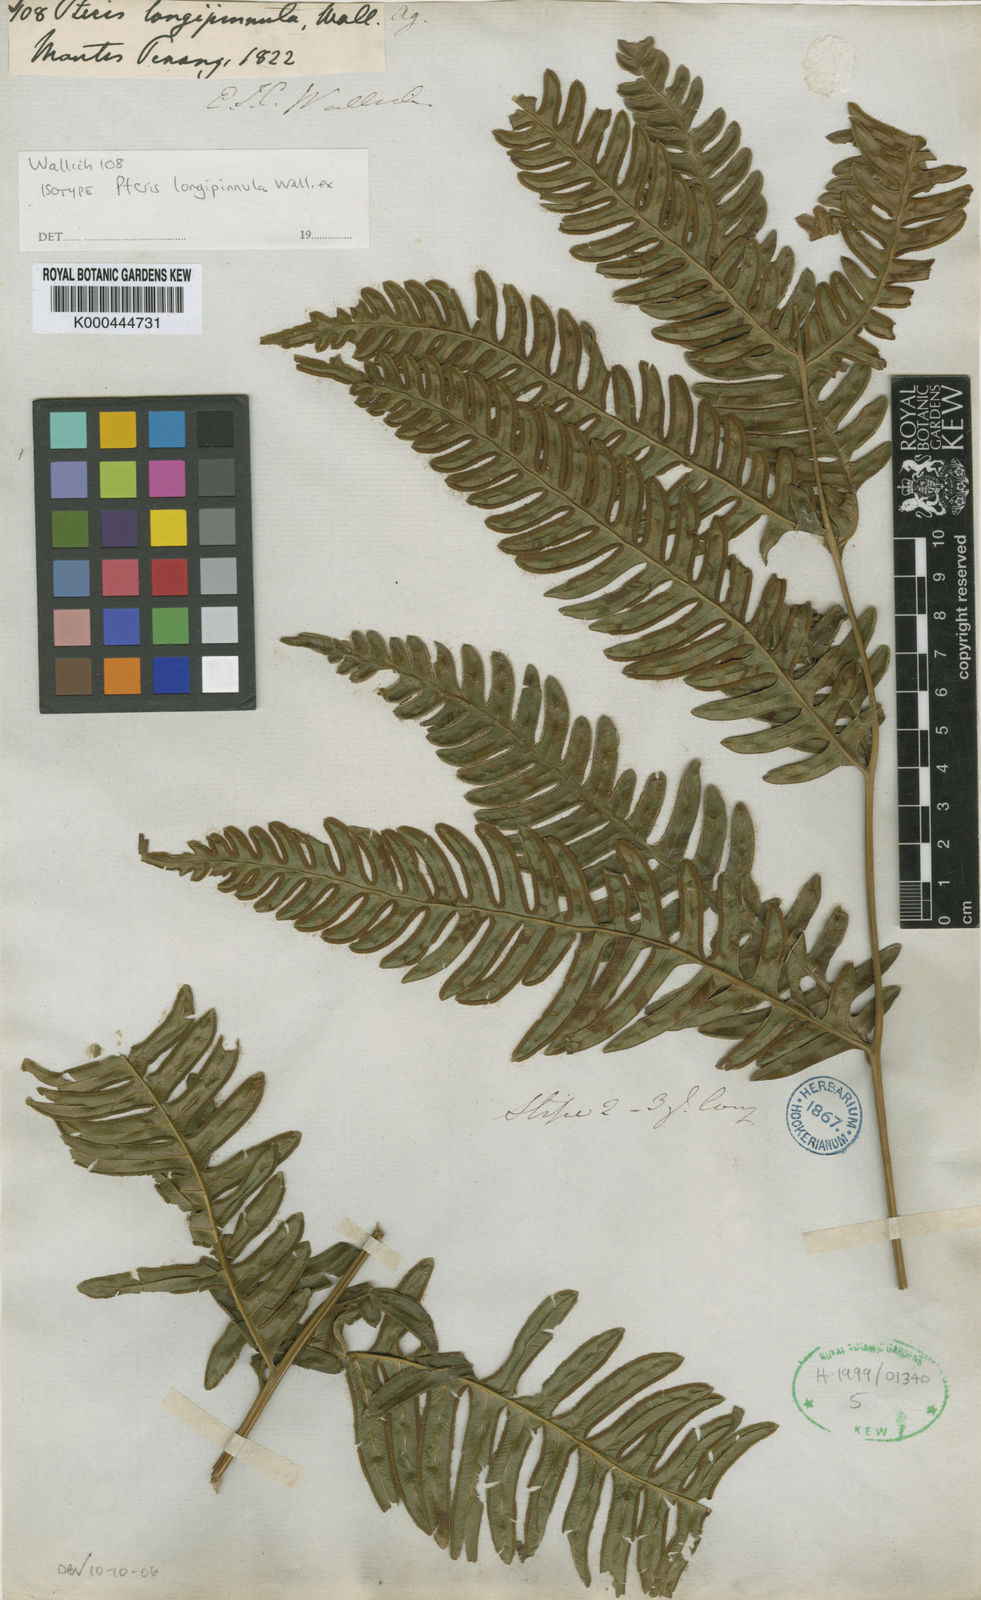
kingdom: Plantae
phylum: Tracheophyta
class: Polypodiopsida
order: Polypodiales
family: Pteridaceae
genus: Pteris
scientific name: Pteris longipinnula
